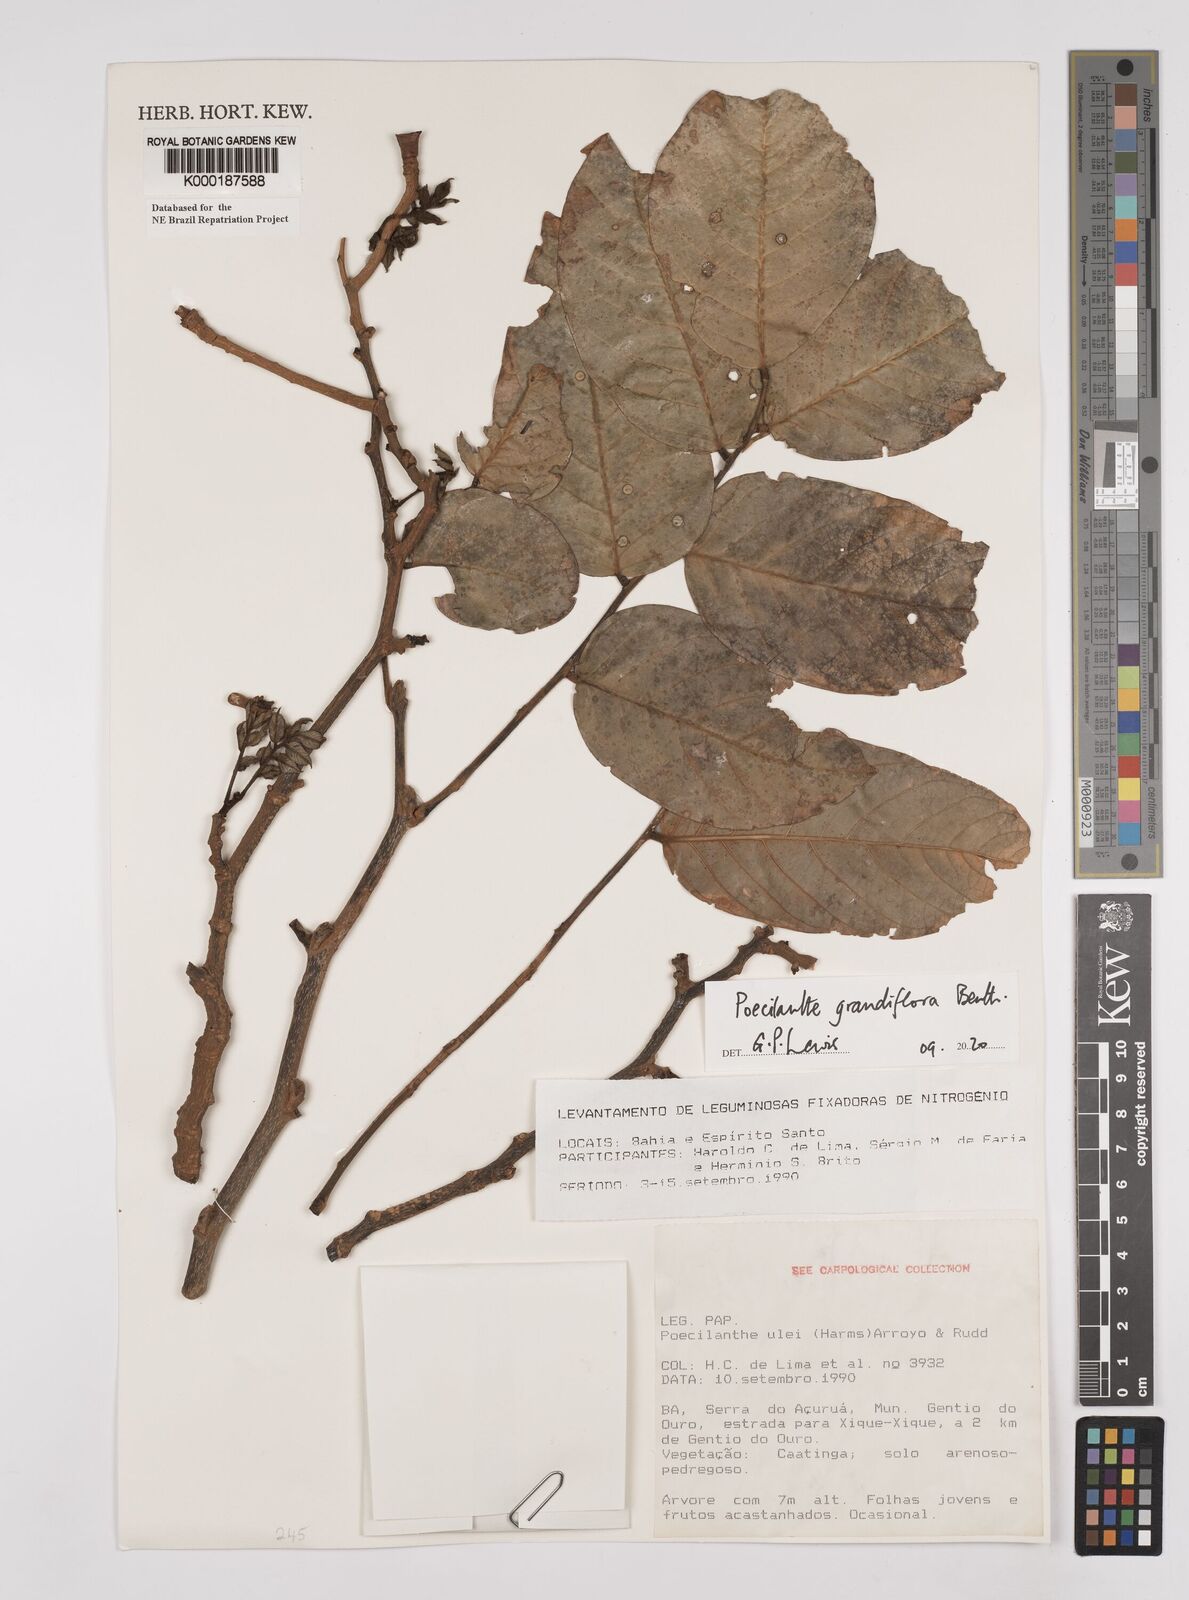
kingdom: Plantae
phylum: Tracheophyta
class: Magnoliopsida
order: Fabales
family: Fabaceae
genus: Poecilanthe
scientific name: Poecilanthe ulei
